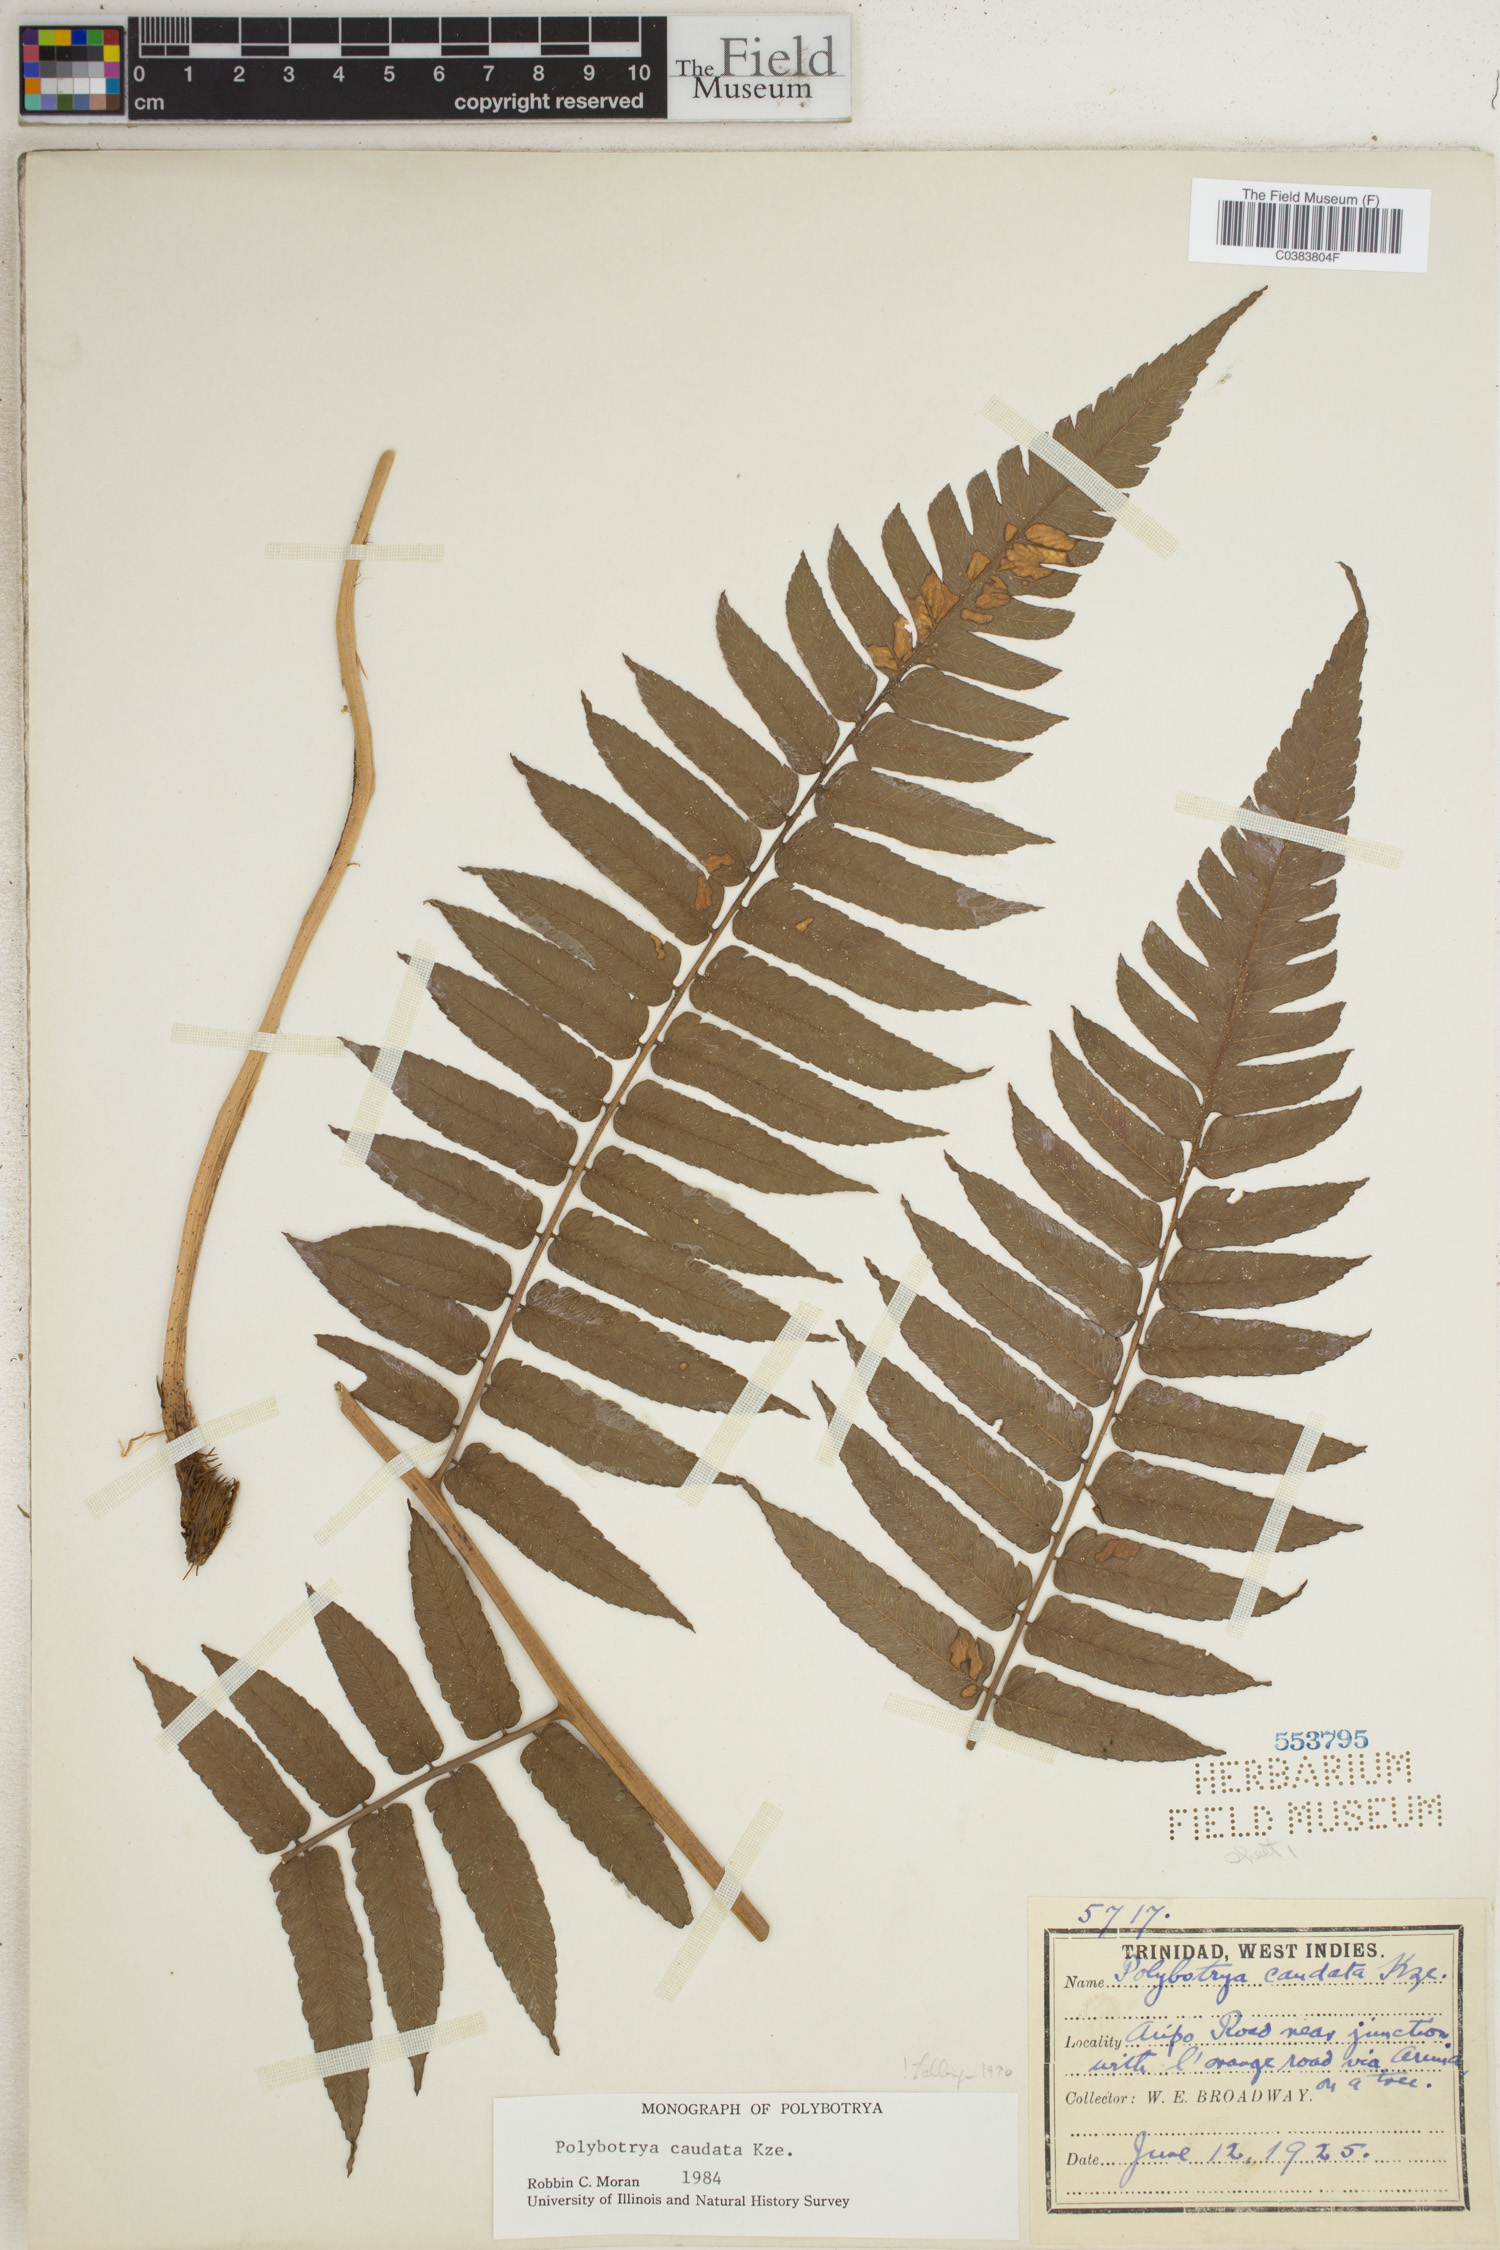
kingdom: Plantae
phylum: Tracheophyta
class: Polypodiopsida
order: Polypodiales
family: Dryopteridaceae
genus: Polybotrya
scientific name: Polybotrya caudata
